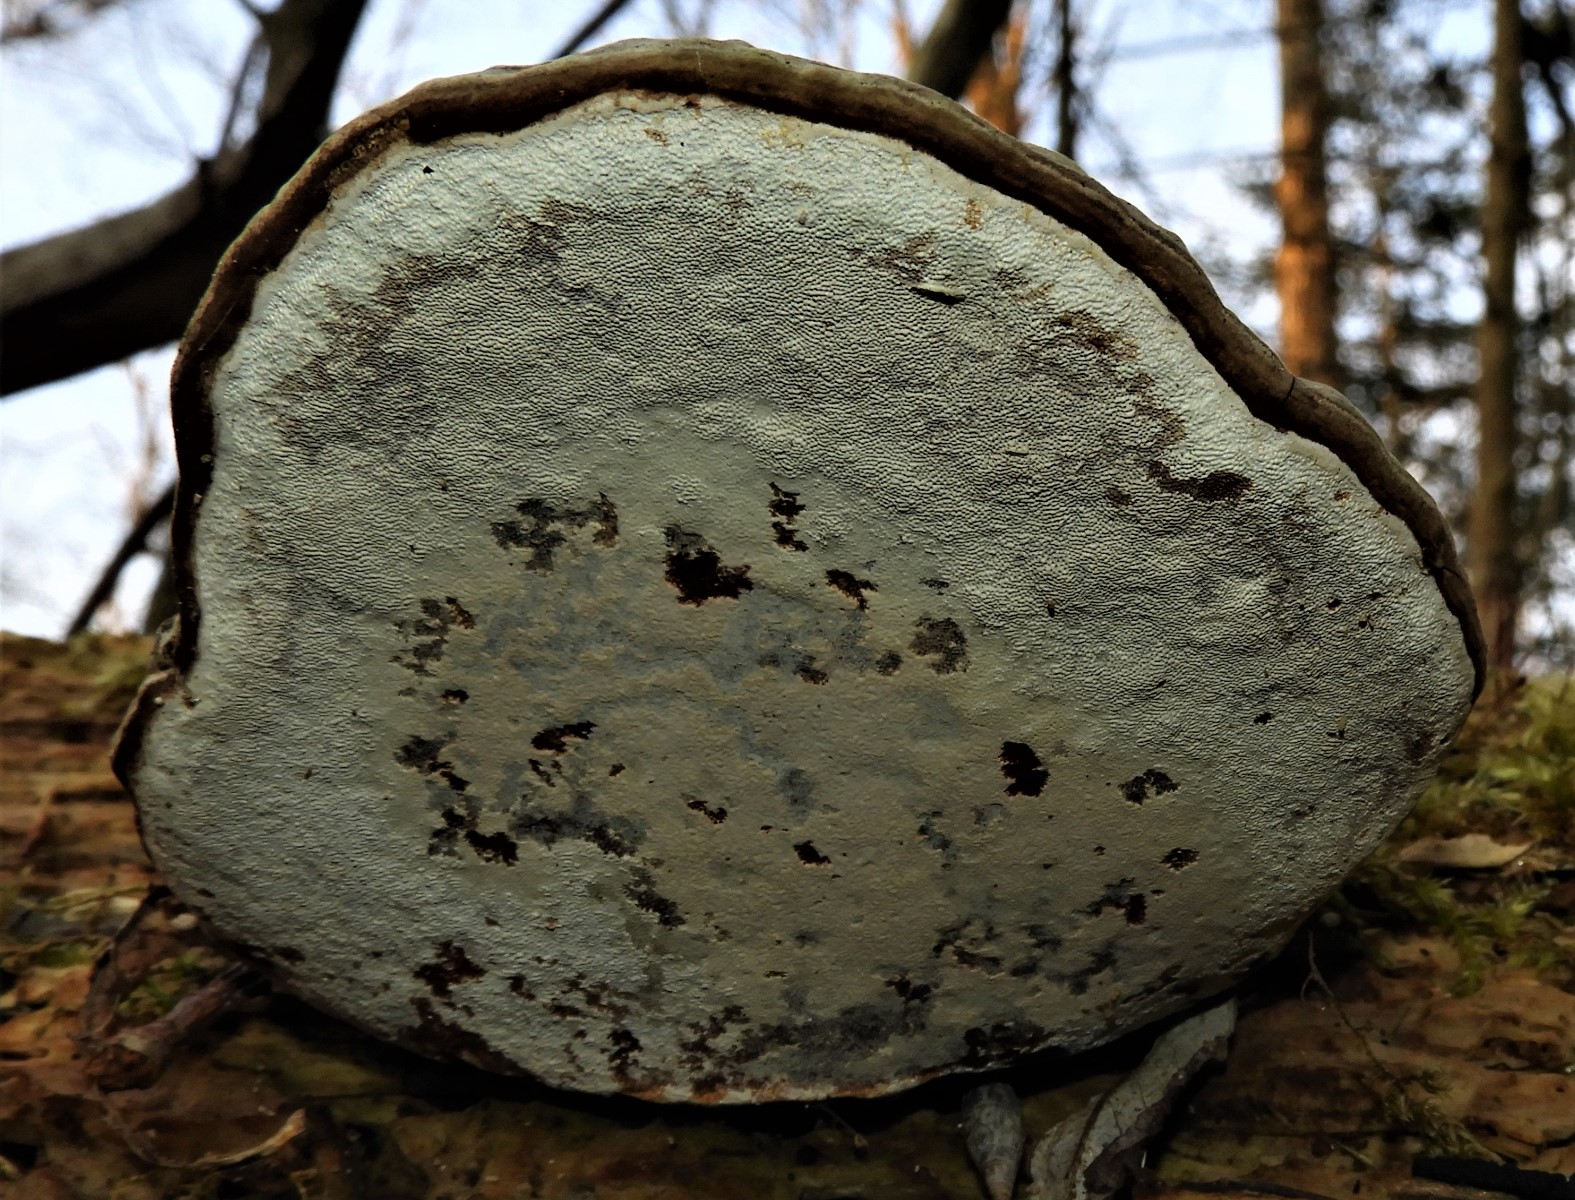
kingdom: Fungi
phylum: Basidiomycota
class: Agaricomycetes
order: Polyporales
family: Polyporaceae
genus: Fomes
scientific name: Fomes fomentarius
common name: tøndersvamp
